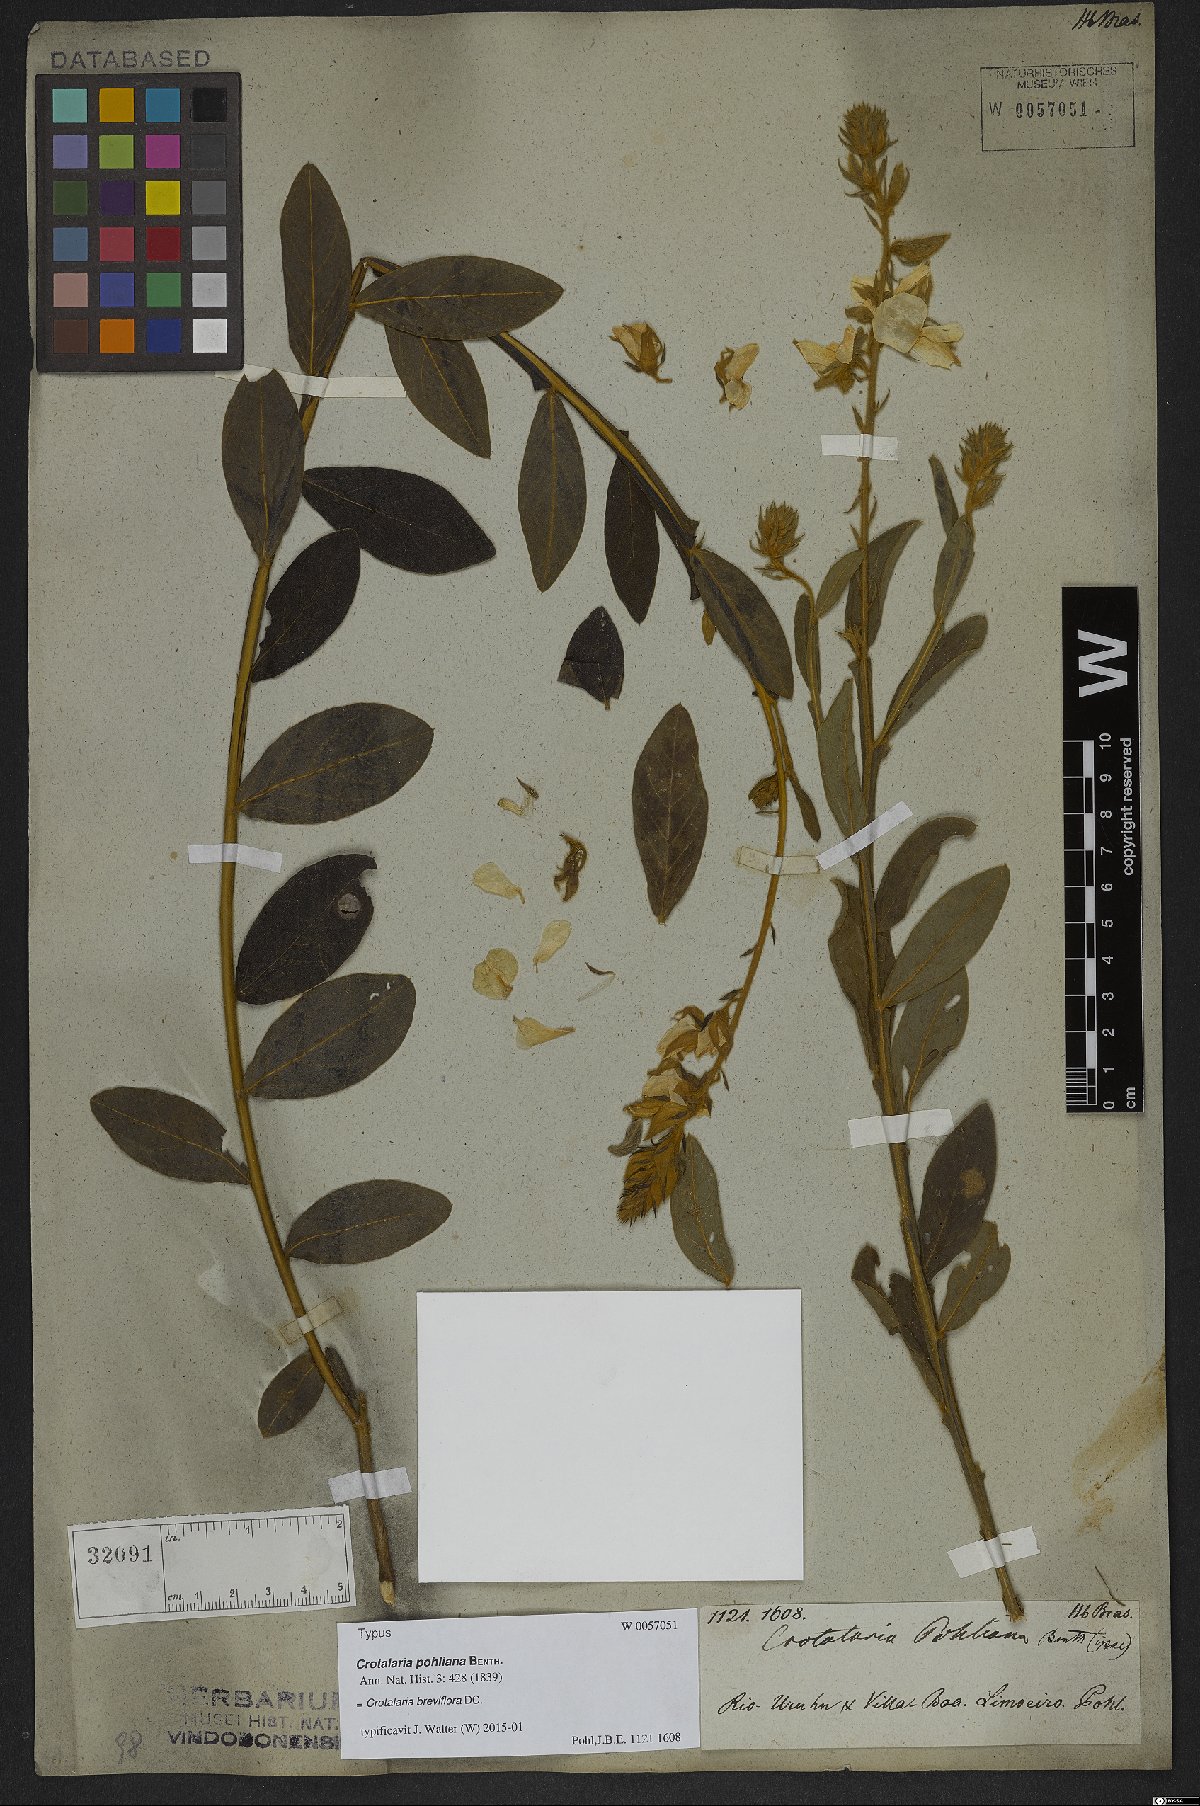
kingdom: Plantae
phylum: Tracheophyta
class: Magnoliopsida
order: Fabales
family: Fabaceae
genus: Crotalaria
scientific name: Crotalaria breviflora
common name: Short-flower crotalaria
